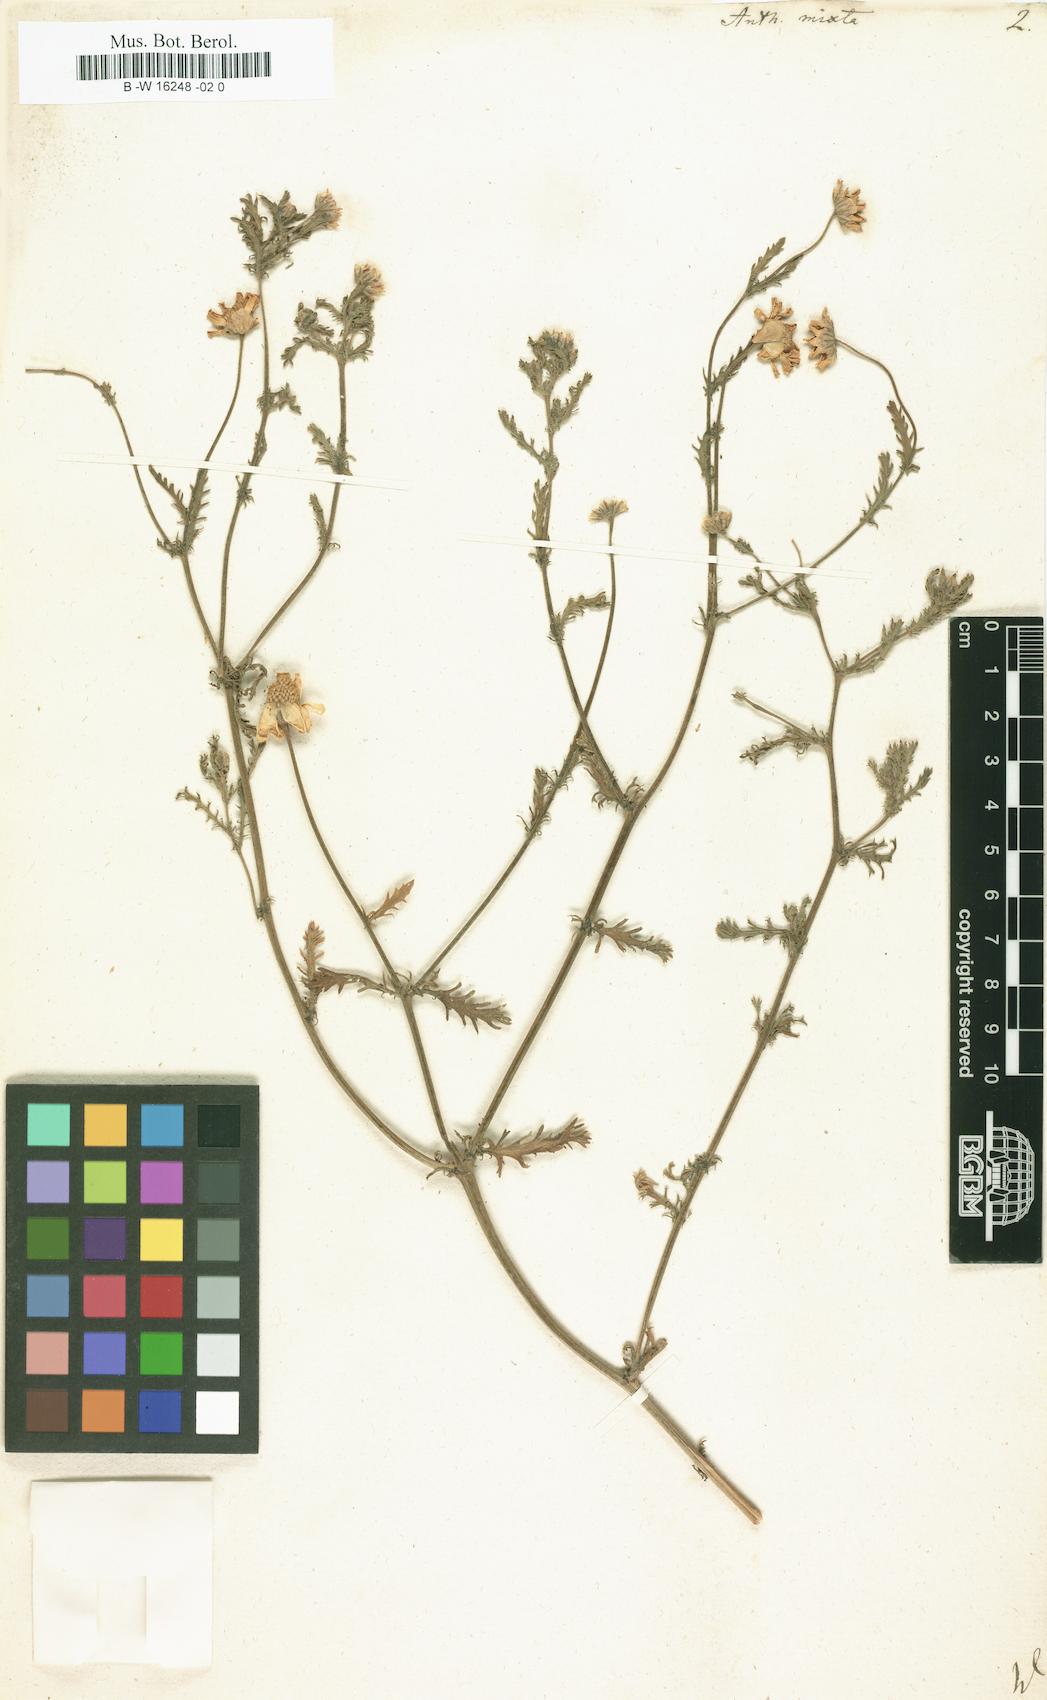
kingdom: Plantae
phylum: Tracheophyta
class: Magnoliopsida
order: Asterales
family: Asteraceae
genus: Cladanthus
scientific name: Cladanthus mixtus
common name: Weedy dogfennel
